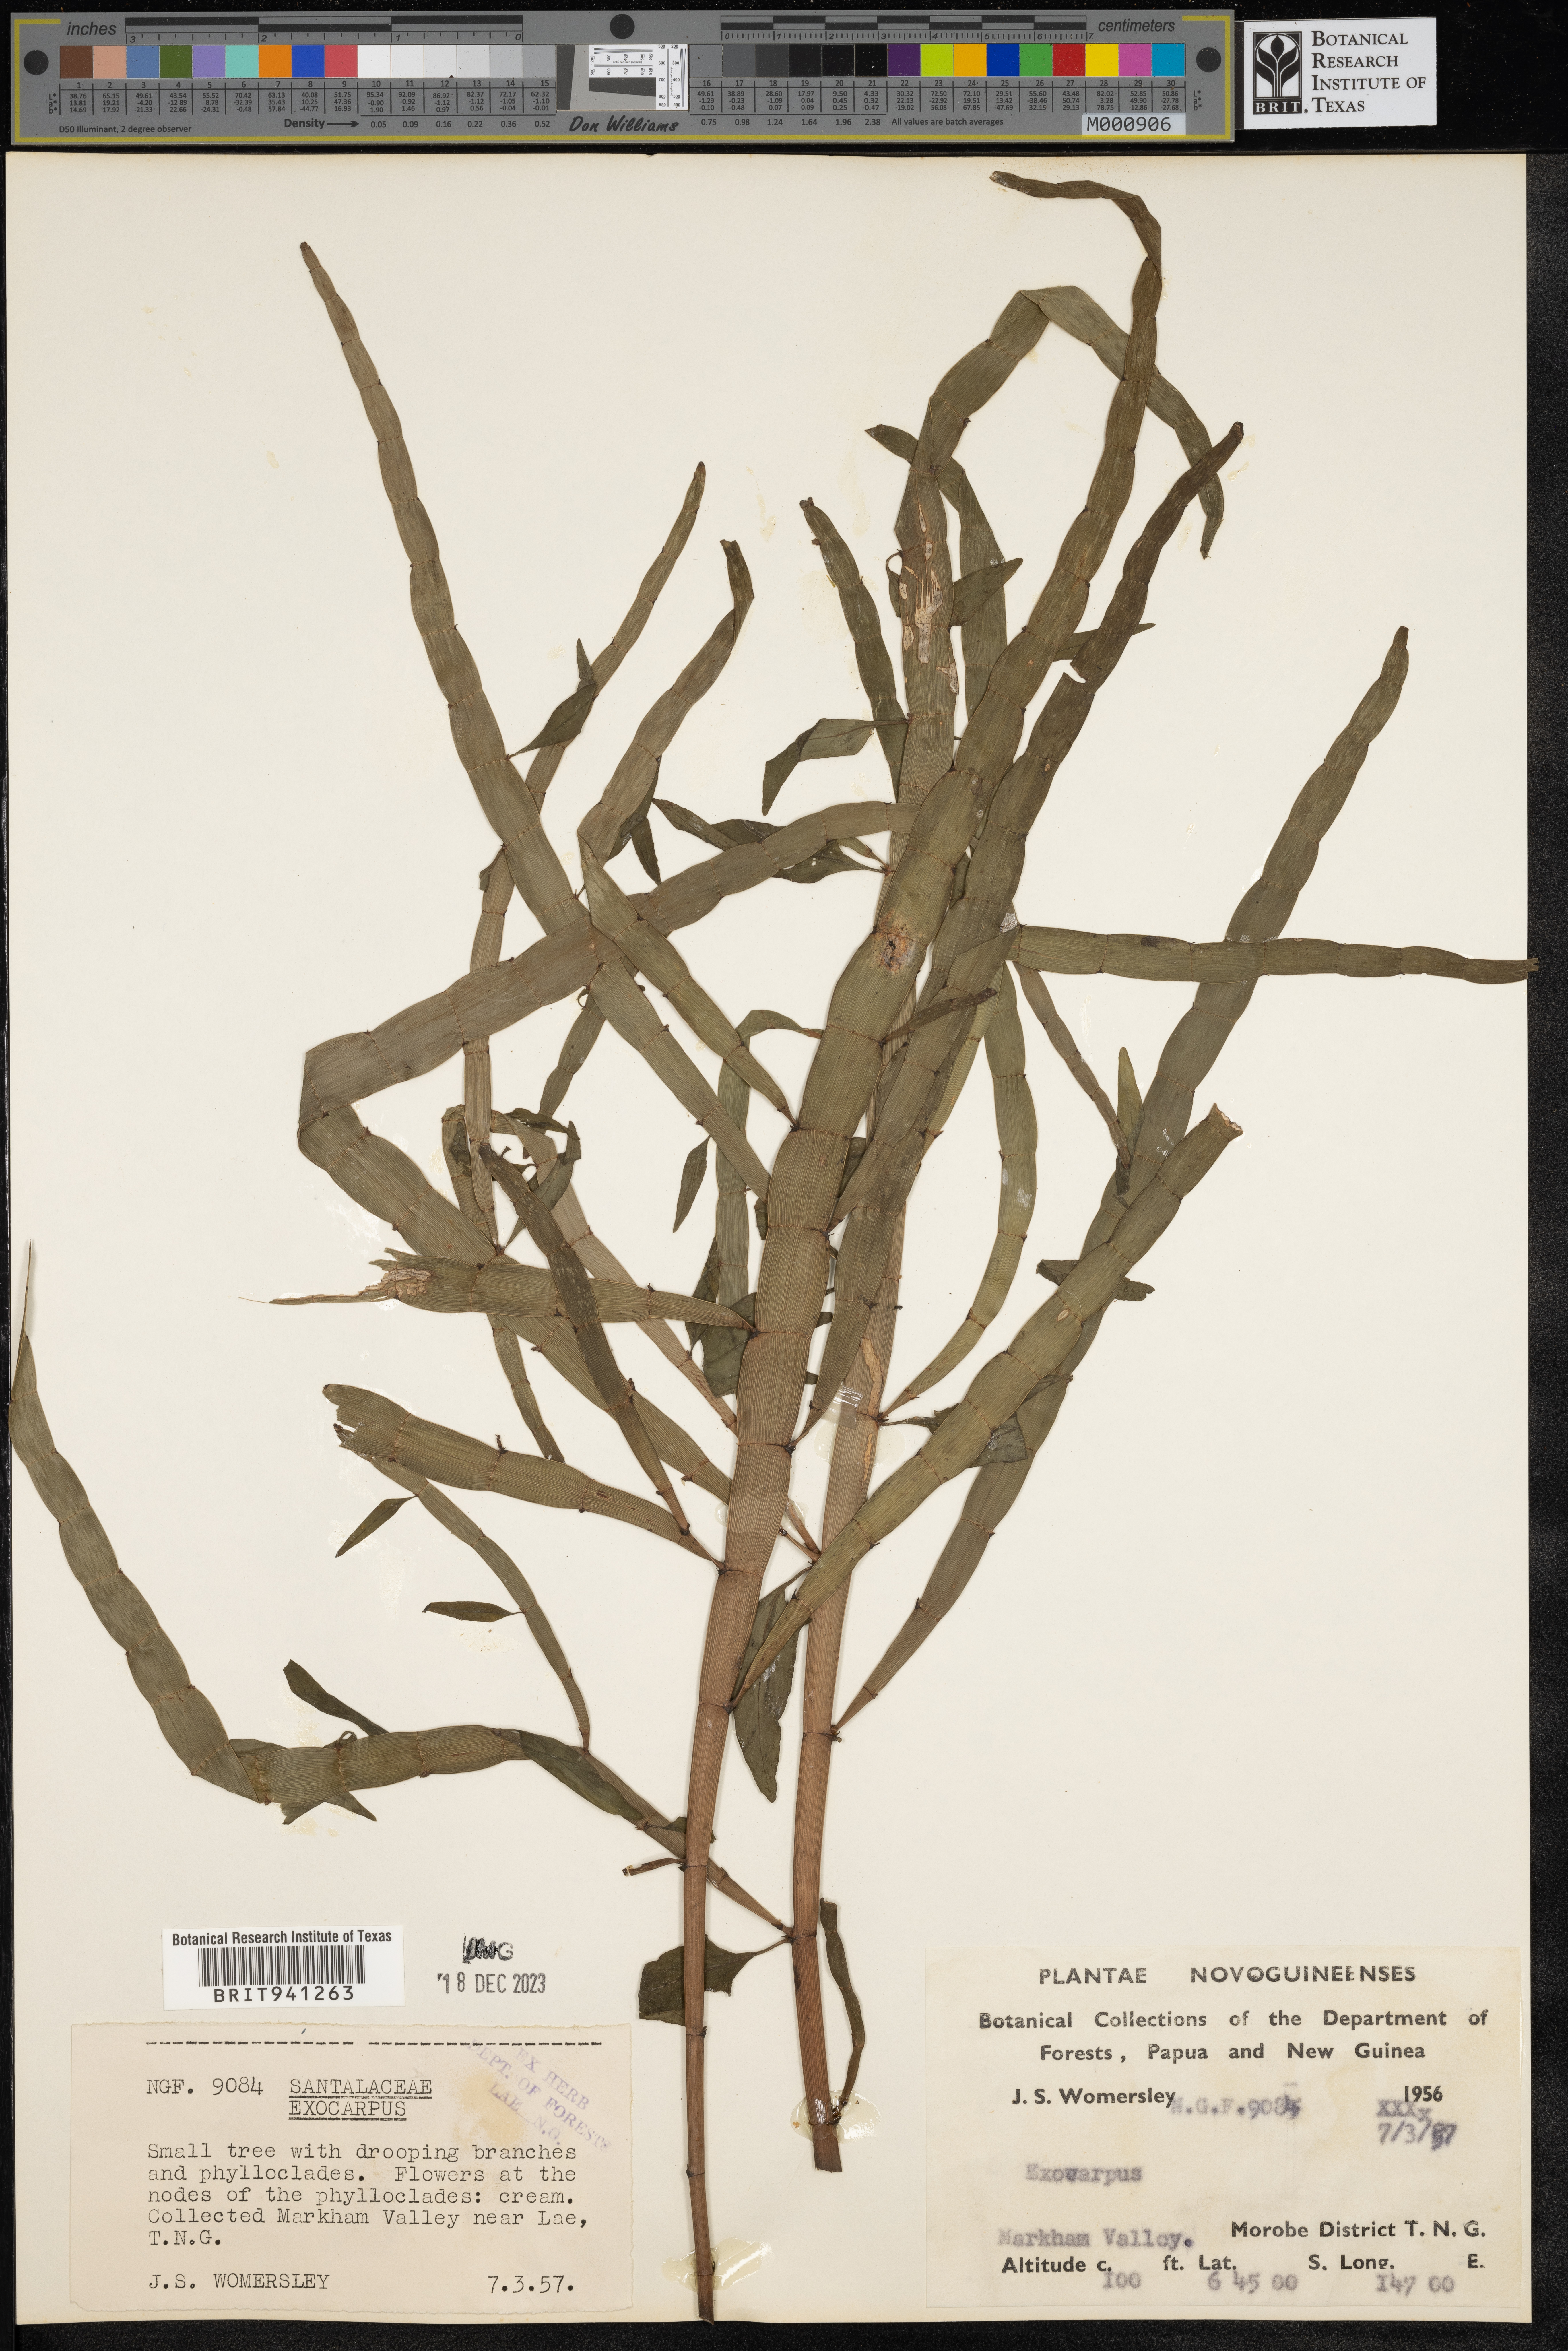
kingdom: Plantae
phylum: Tracheophyta
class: Magnoliopsida
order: Gentianales
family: Rubiaceae
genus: Palicourea
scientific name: Palicourea
